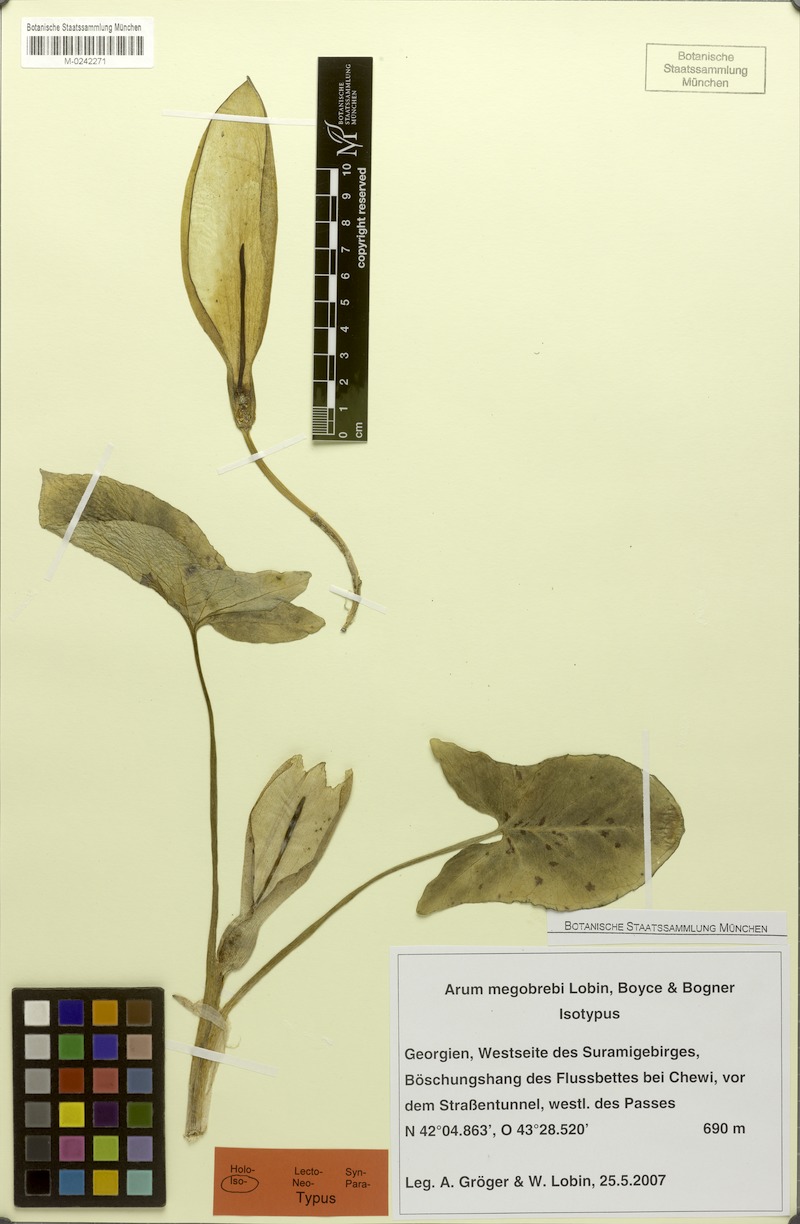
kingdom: Plantae
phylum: Tracheophyta
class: Liliopsida
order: Alismatales
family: Araceae
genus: Arum
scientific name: Arum megobrebi
